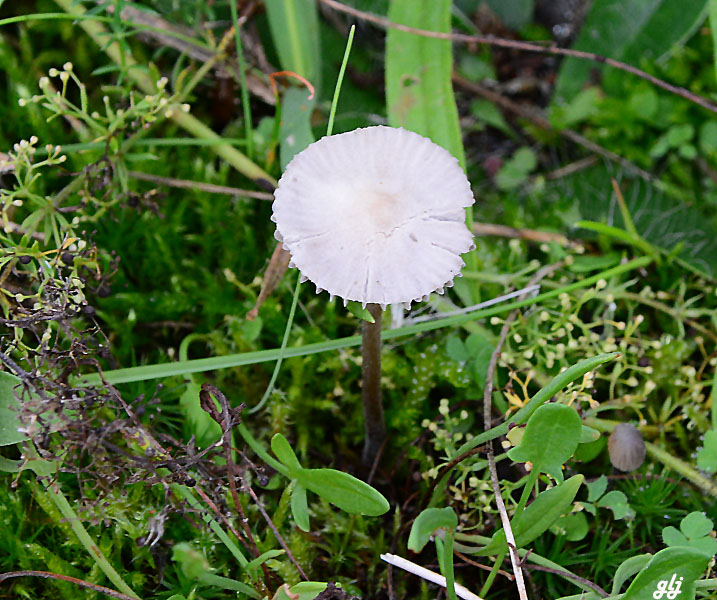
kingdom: Fungi
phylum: Basidiomycota
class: Agaricomycetes
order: Agaricales
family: Mycenaceae
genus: Mycena
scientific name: Mycena aetites
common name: plæne-huesvamp
